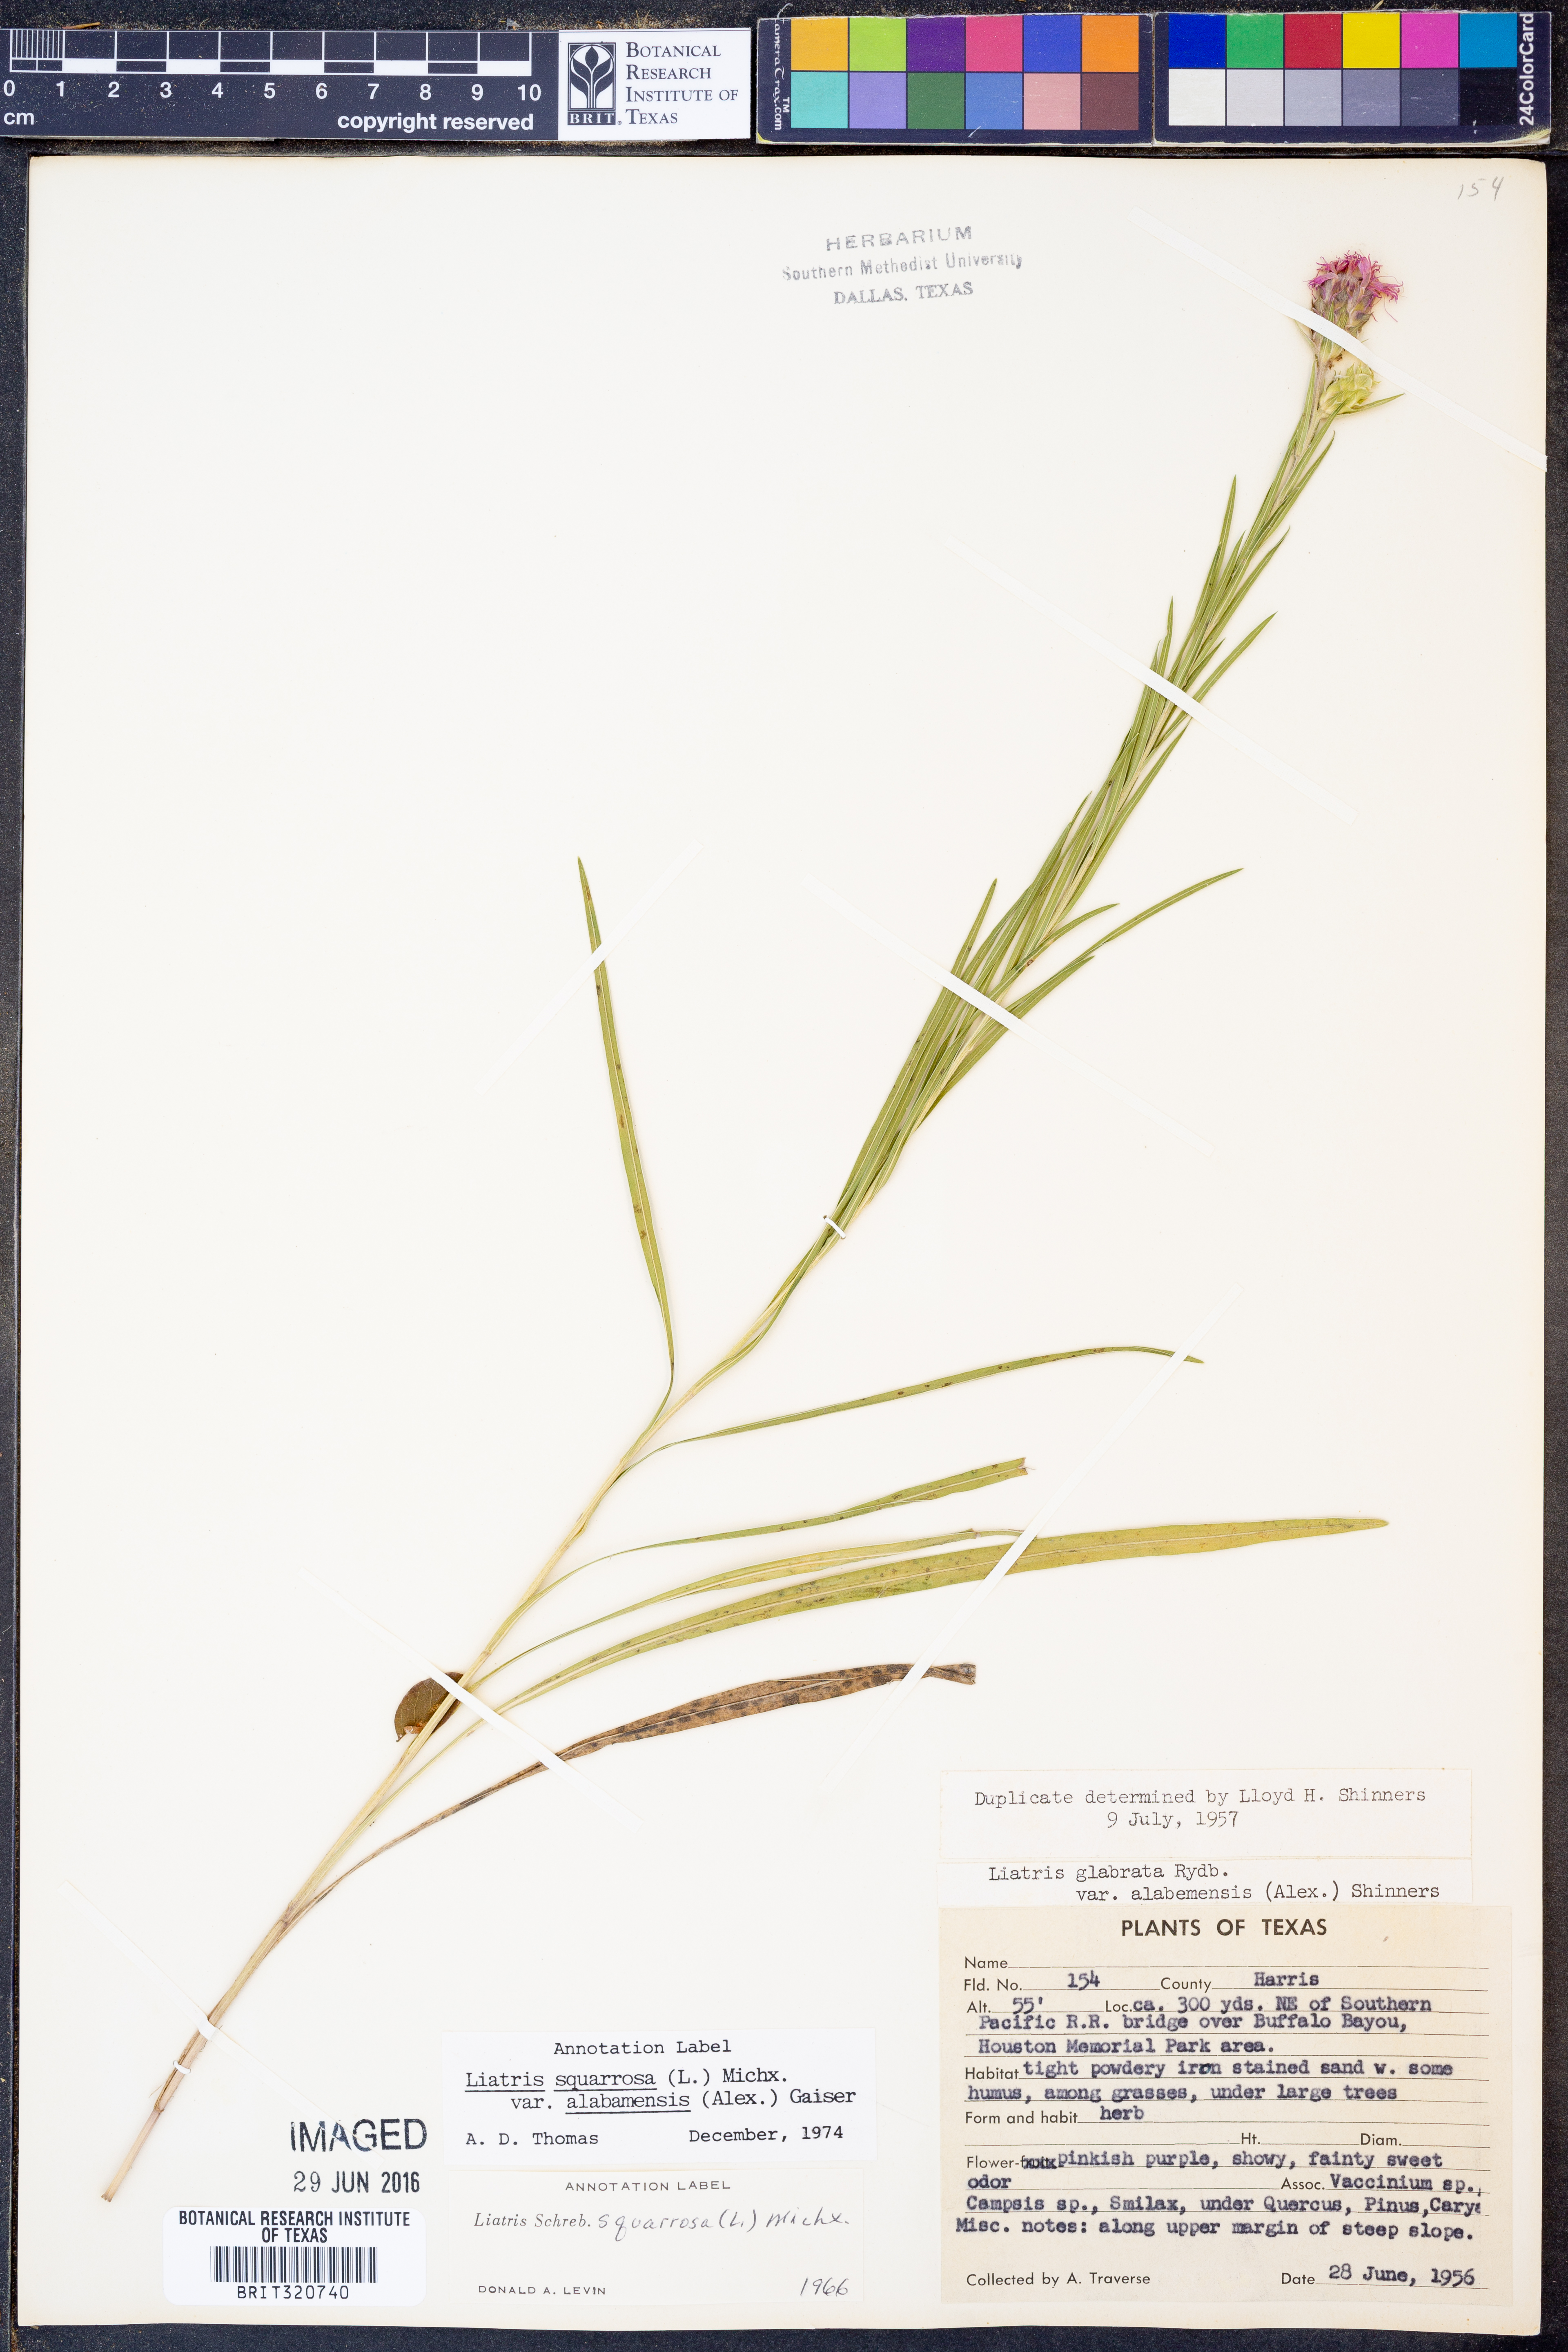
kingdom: Plantae
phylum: Tracheophyta
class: Magnoliopsida
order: Asterales
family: Asteraceae
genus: Liatris
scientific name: Liatris squarrosa
